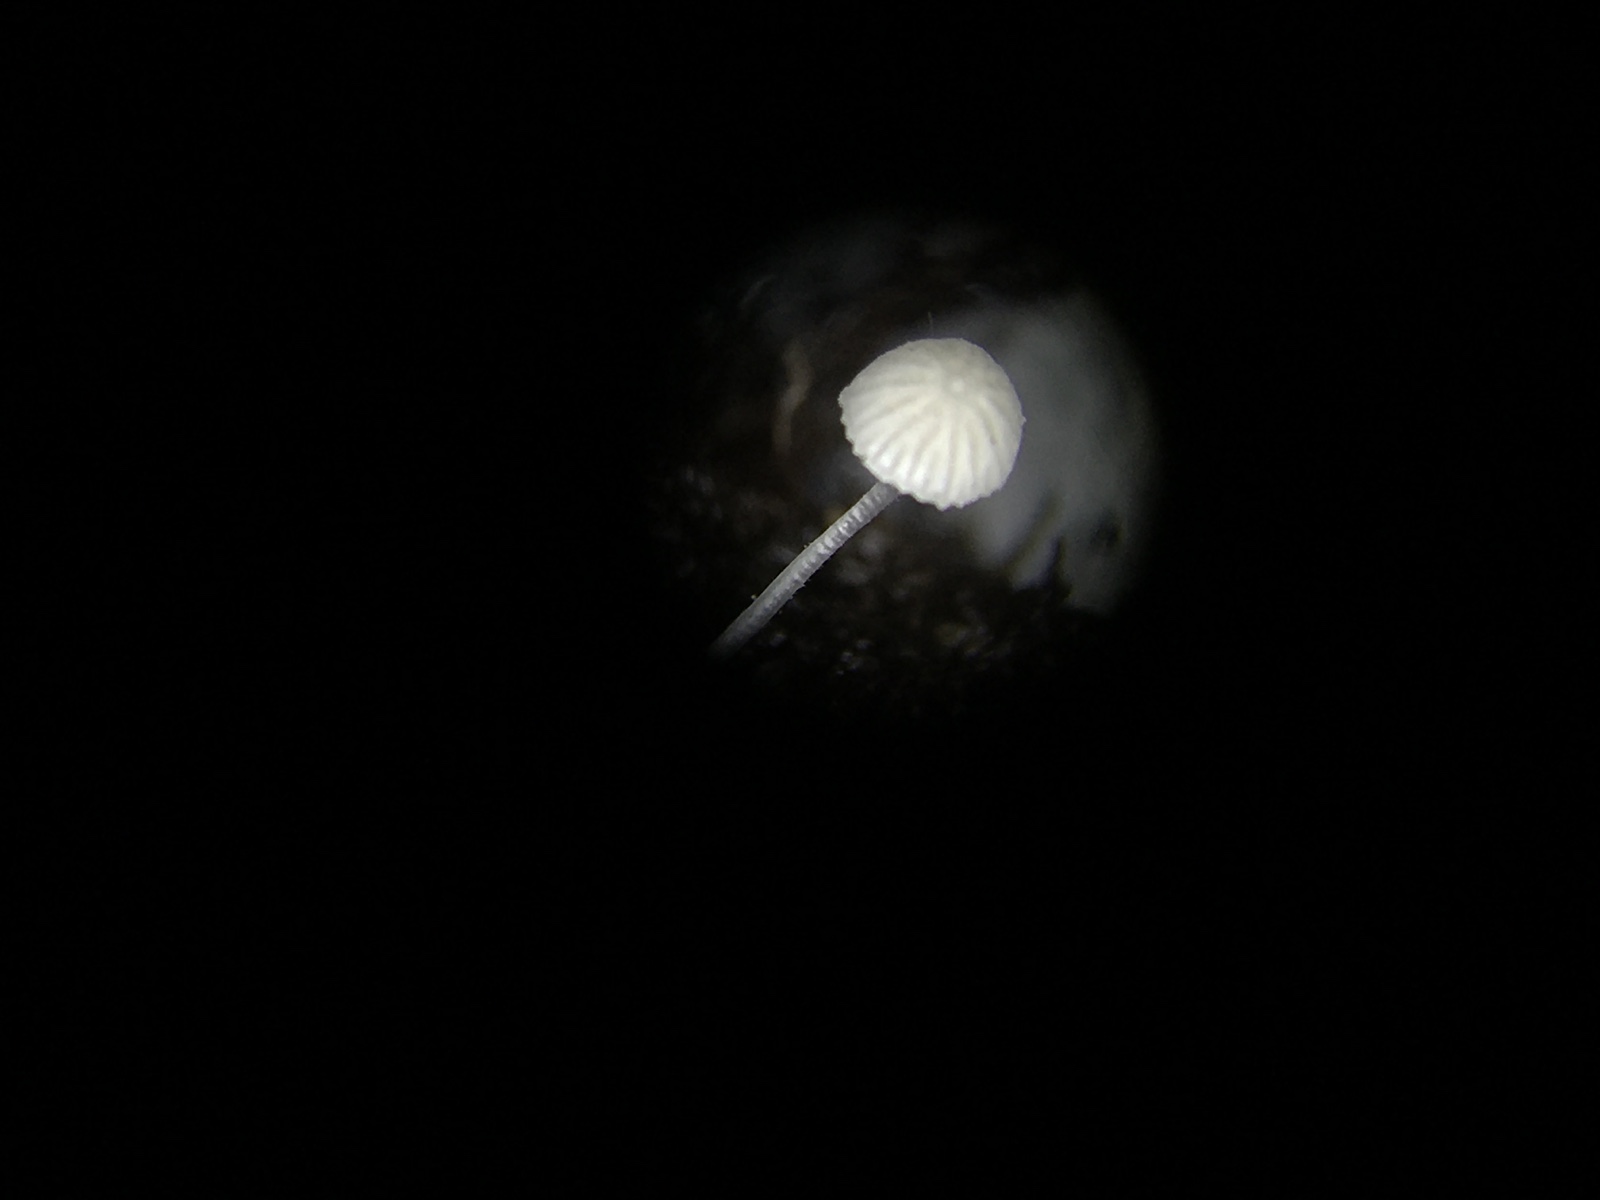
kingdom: Fungi
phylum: Basidiomycota
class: Agaricomycetes
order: Agaricales
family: Mycenaceae
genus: Mycena
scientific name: Mycena tenerrima
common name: pudret huesvamp
